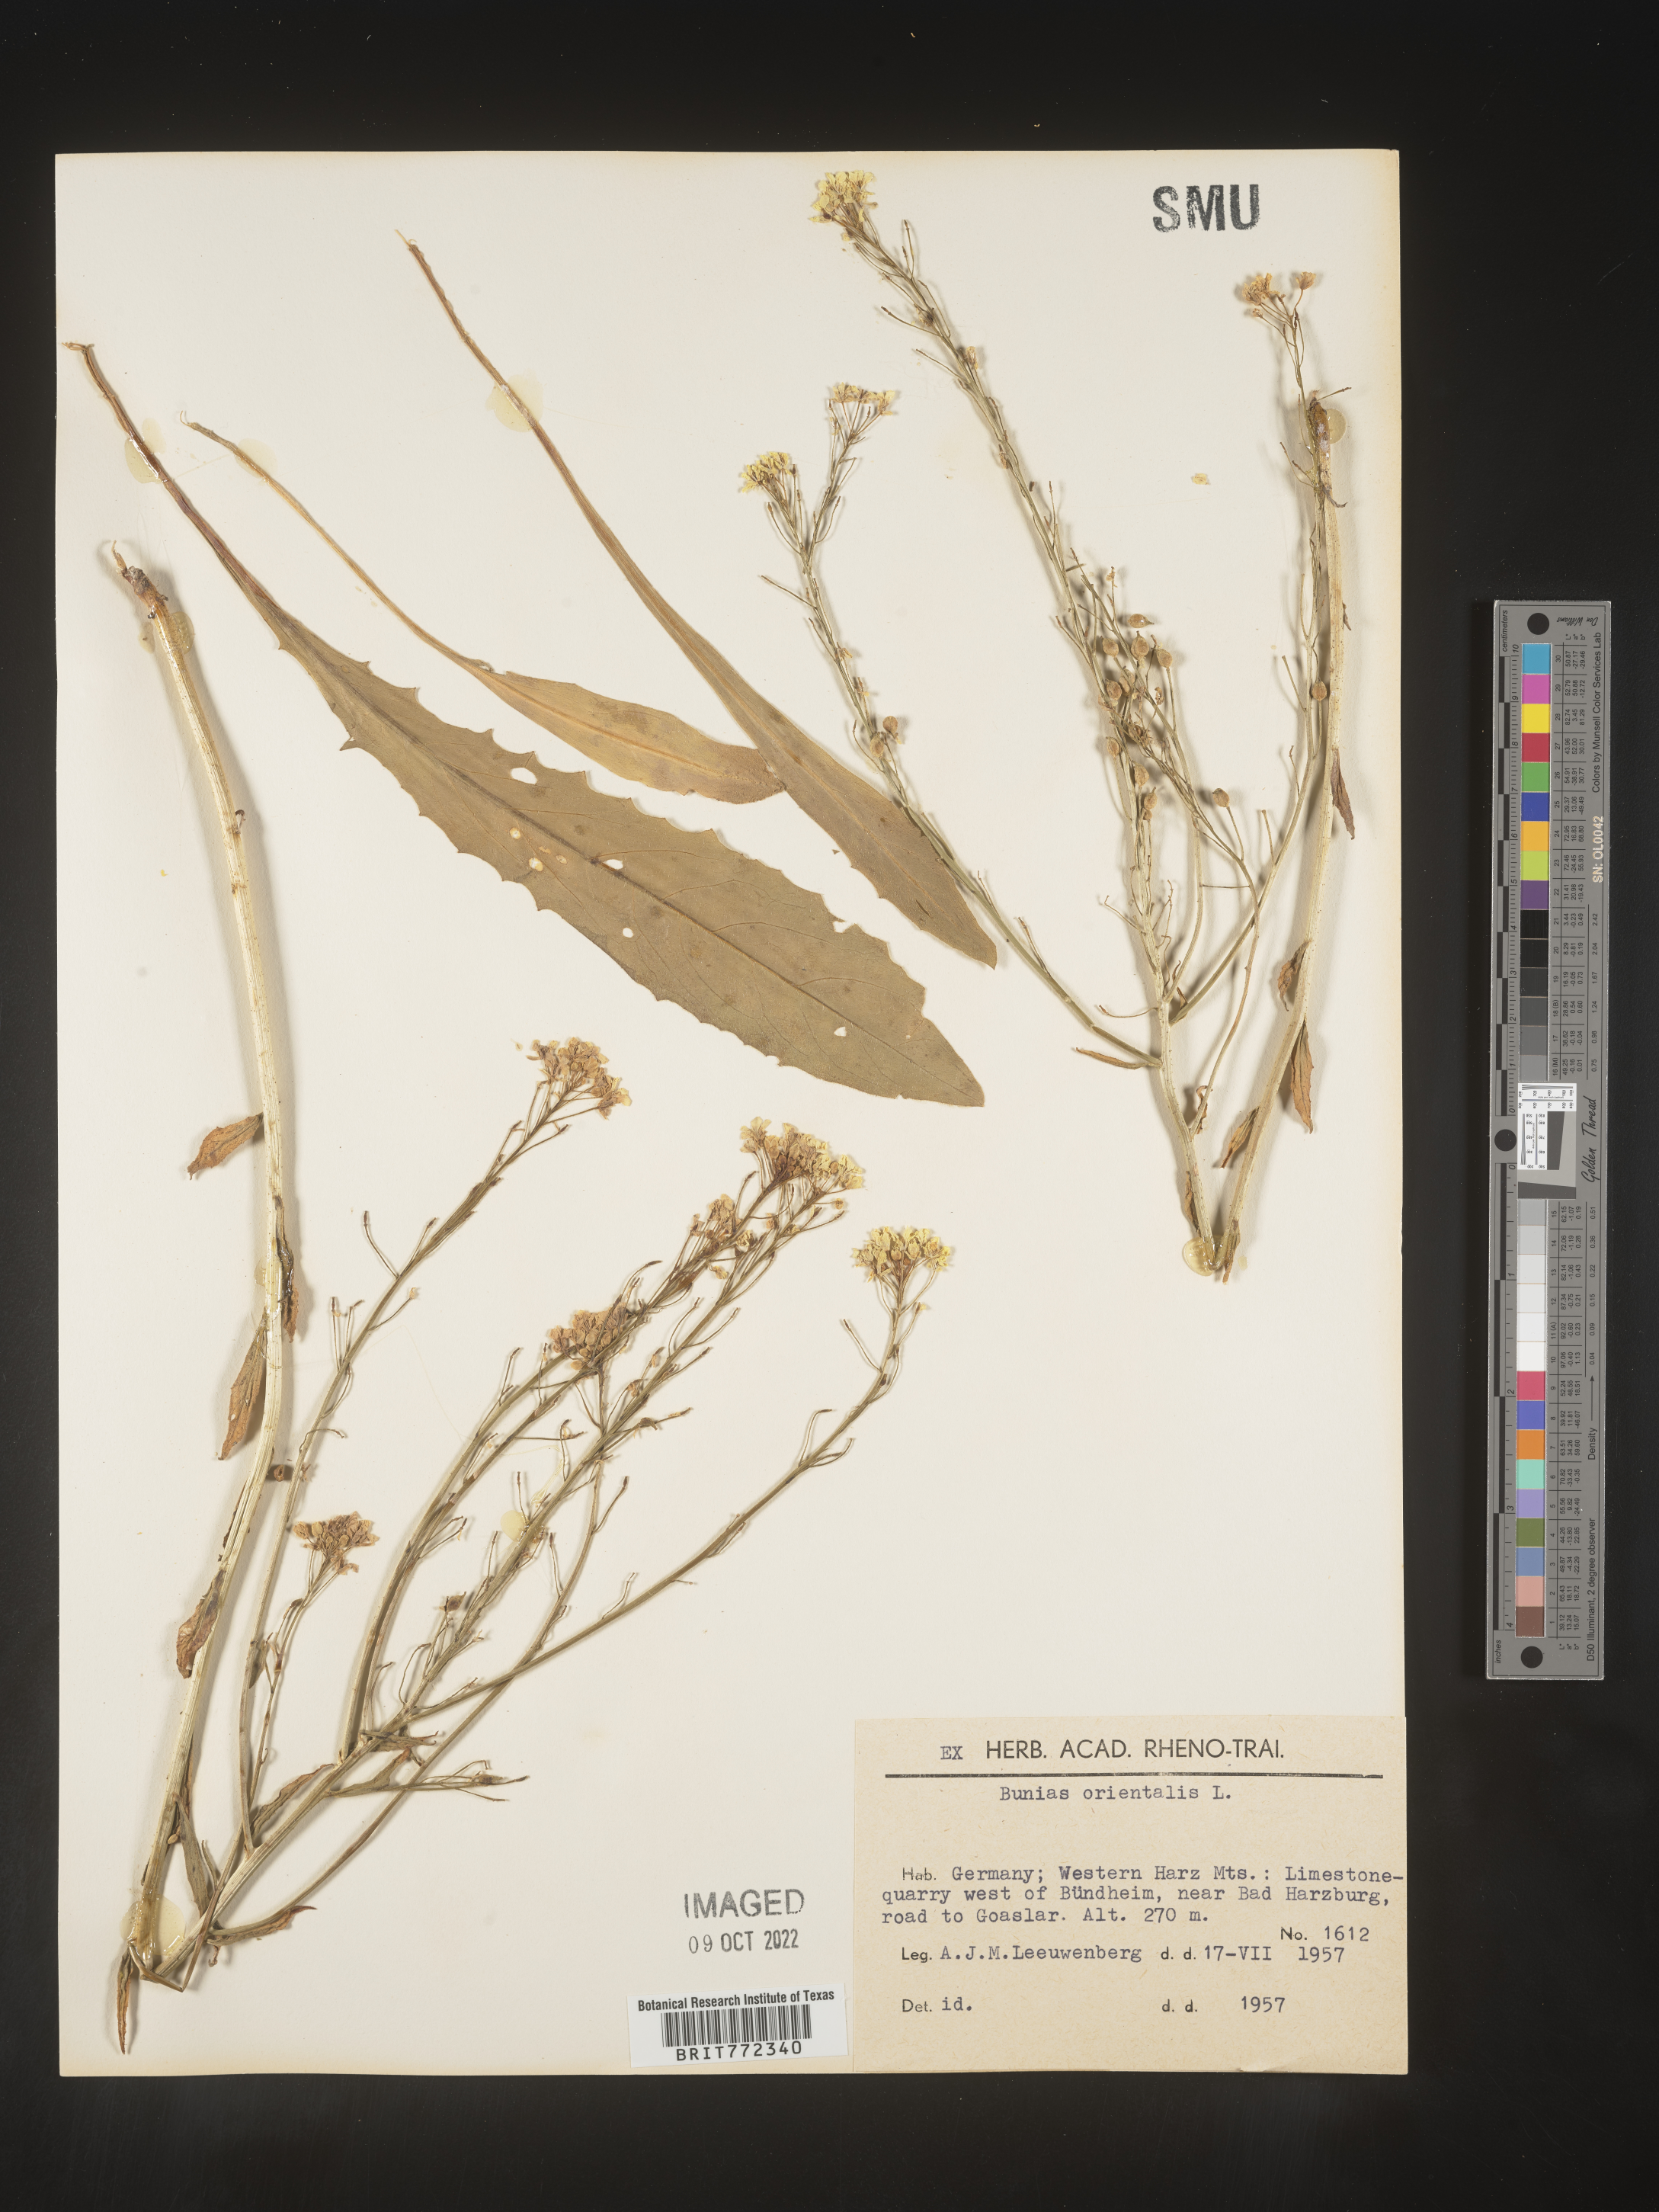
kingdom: Plantae
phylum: Tracheophyta
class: Magnoliopsida
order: Brassicales
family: Brassicaceae
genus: Bunias
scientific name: Bunias
